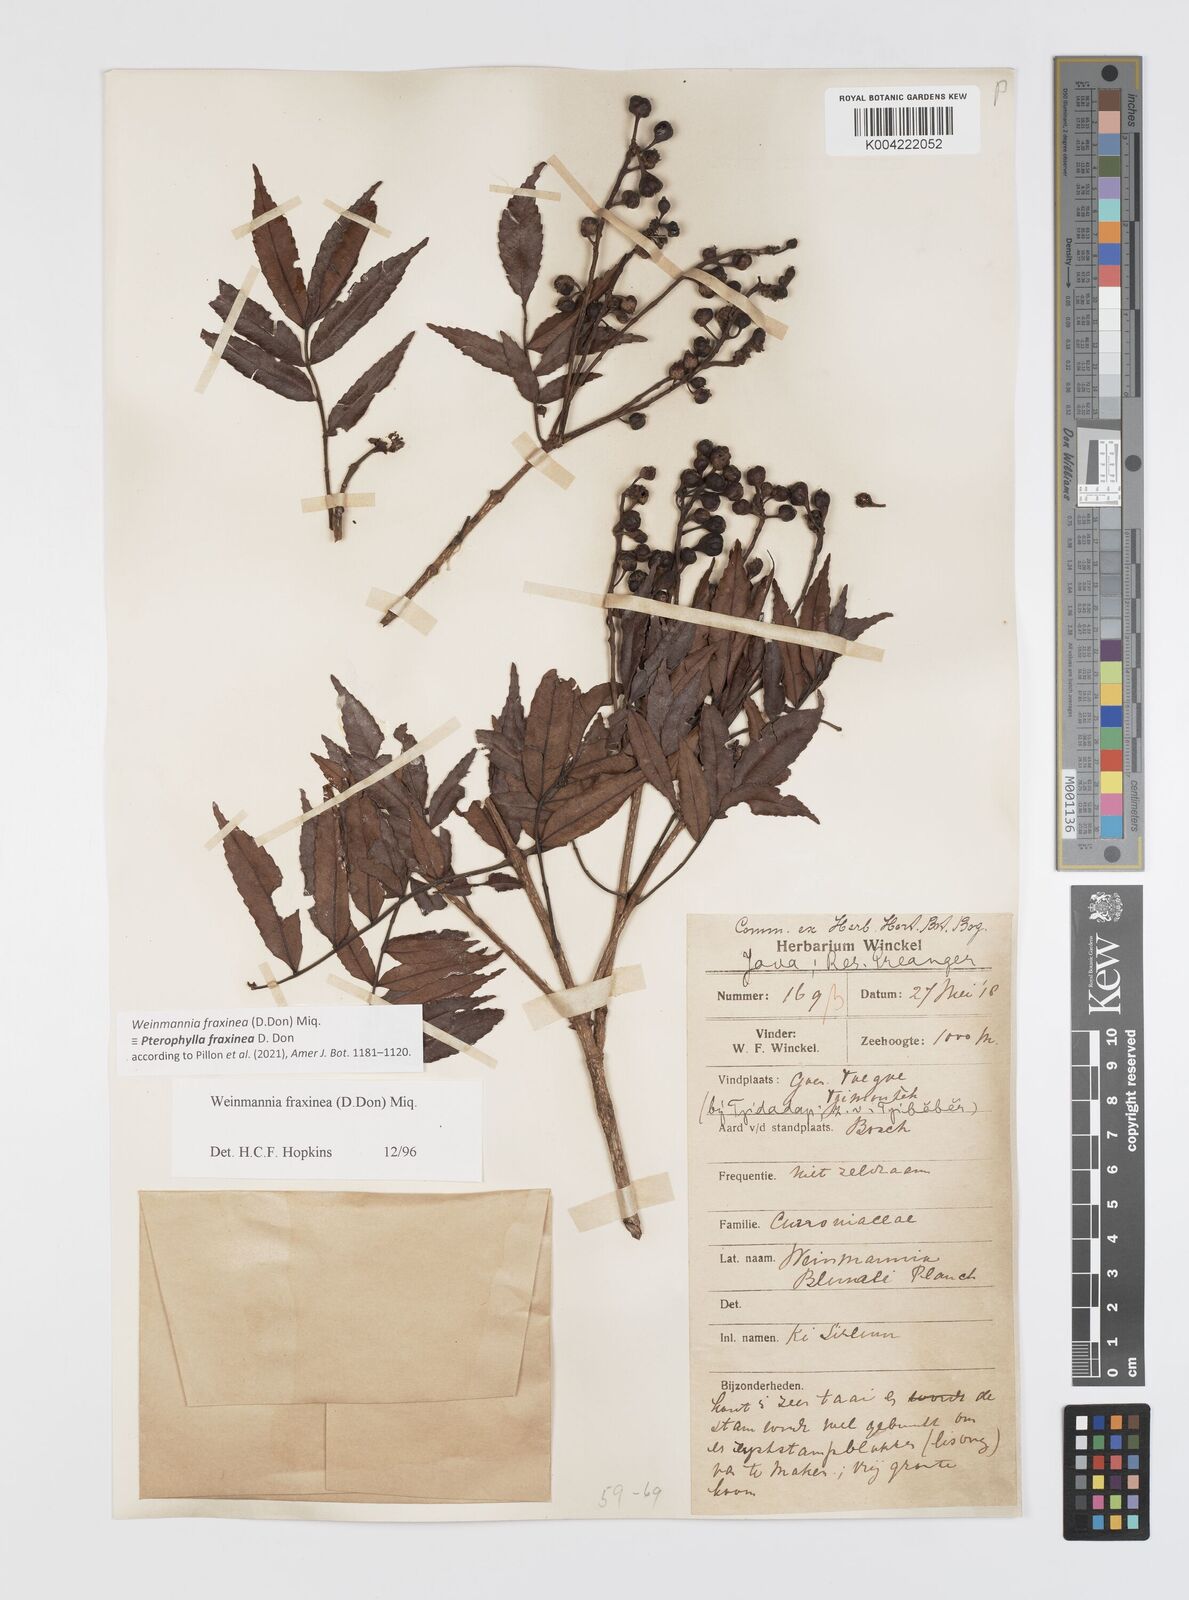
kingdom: Plantae
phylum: Tracheophyta
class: Magnoliopsida
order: Oxalidales
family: Cunoniaceae
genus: Pterophylla
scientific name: Pterophylla fraxinea
